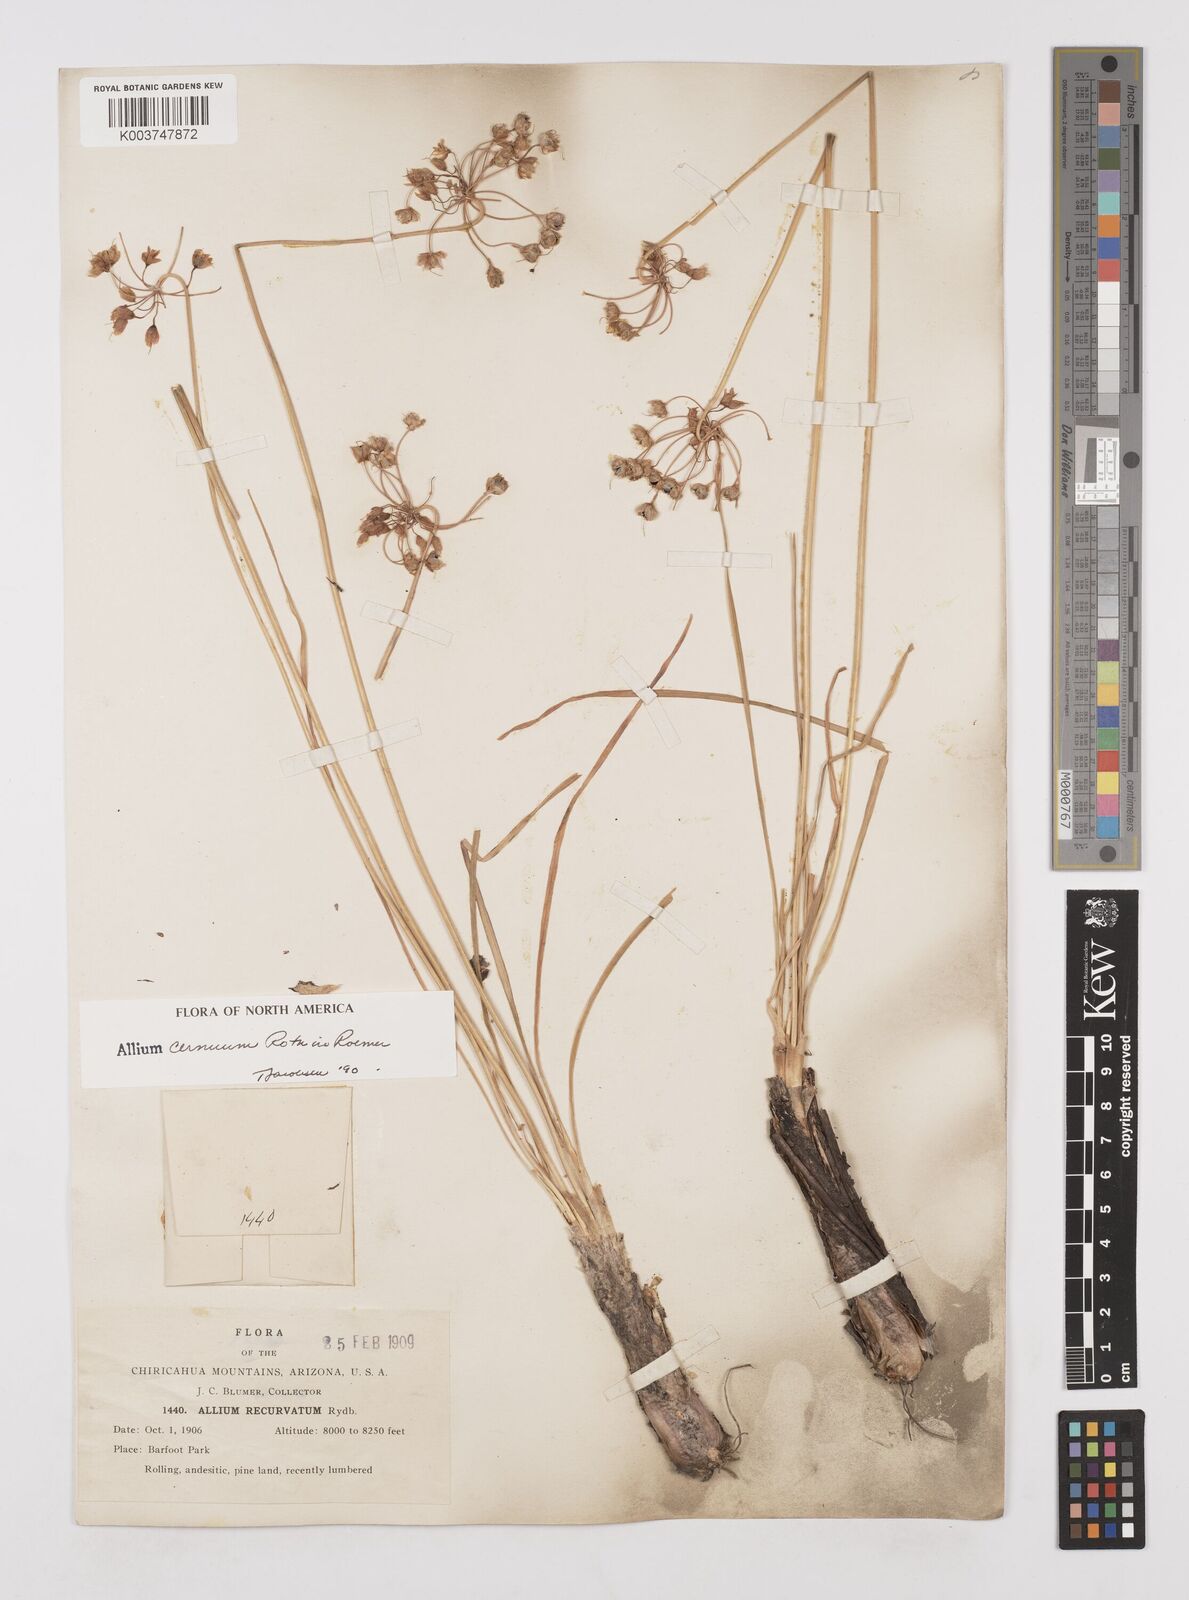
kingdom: Plantae
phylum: Tracheophyta
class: Liliopsida
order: Asparagales
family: Amaryllidaceae
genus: Allium
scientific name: Allium cernuum
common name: Nodding onion
